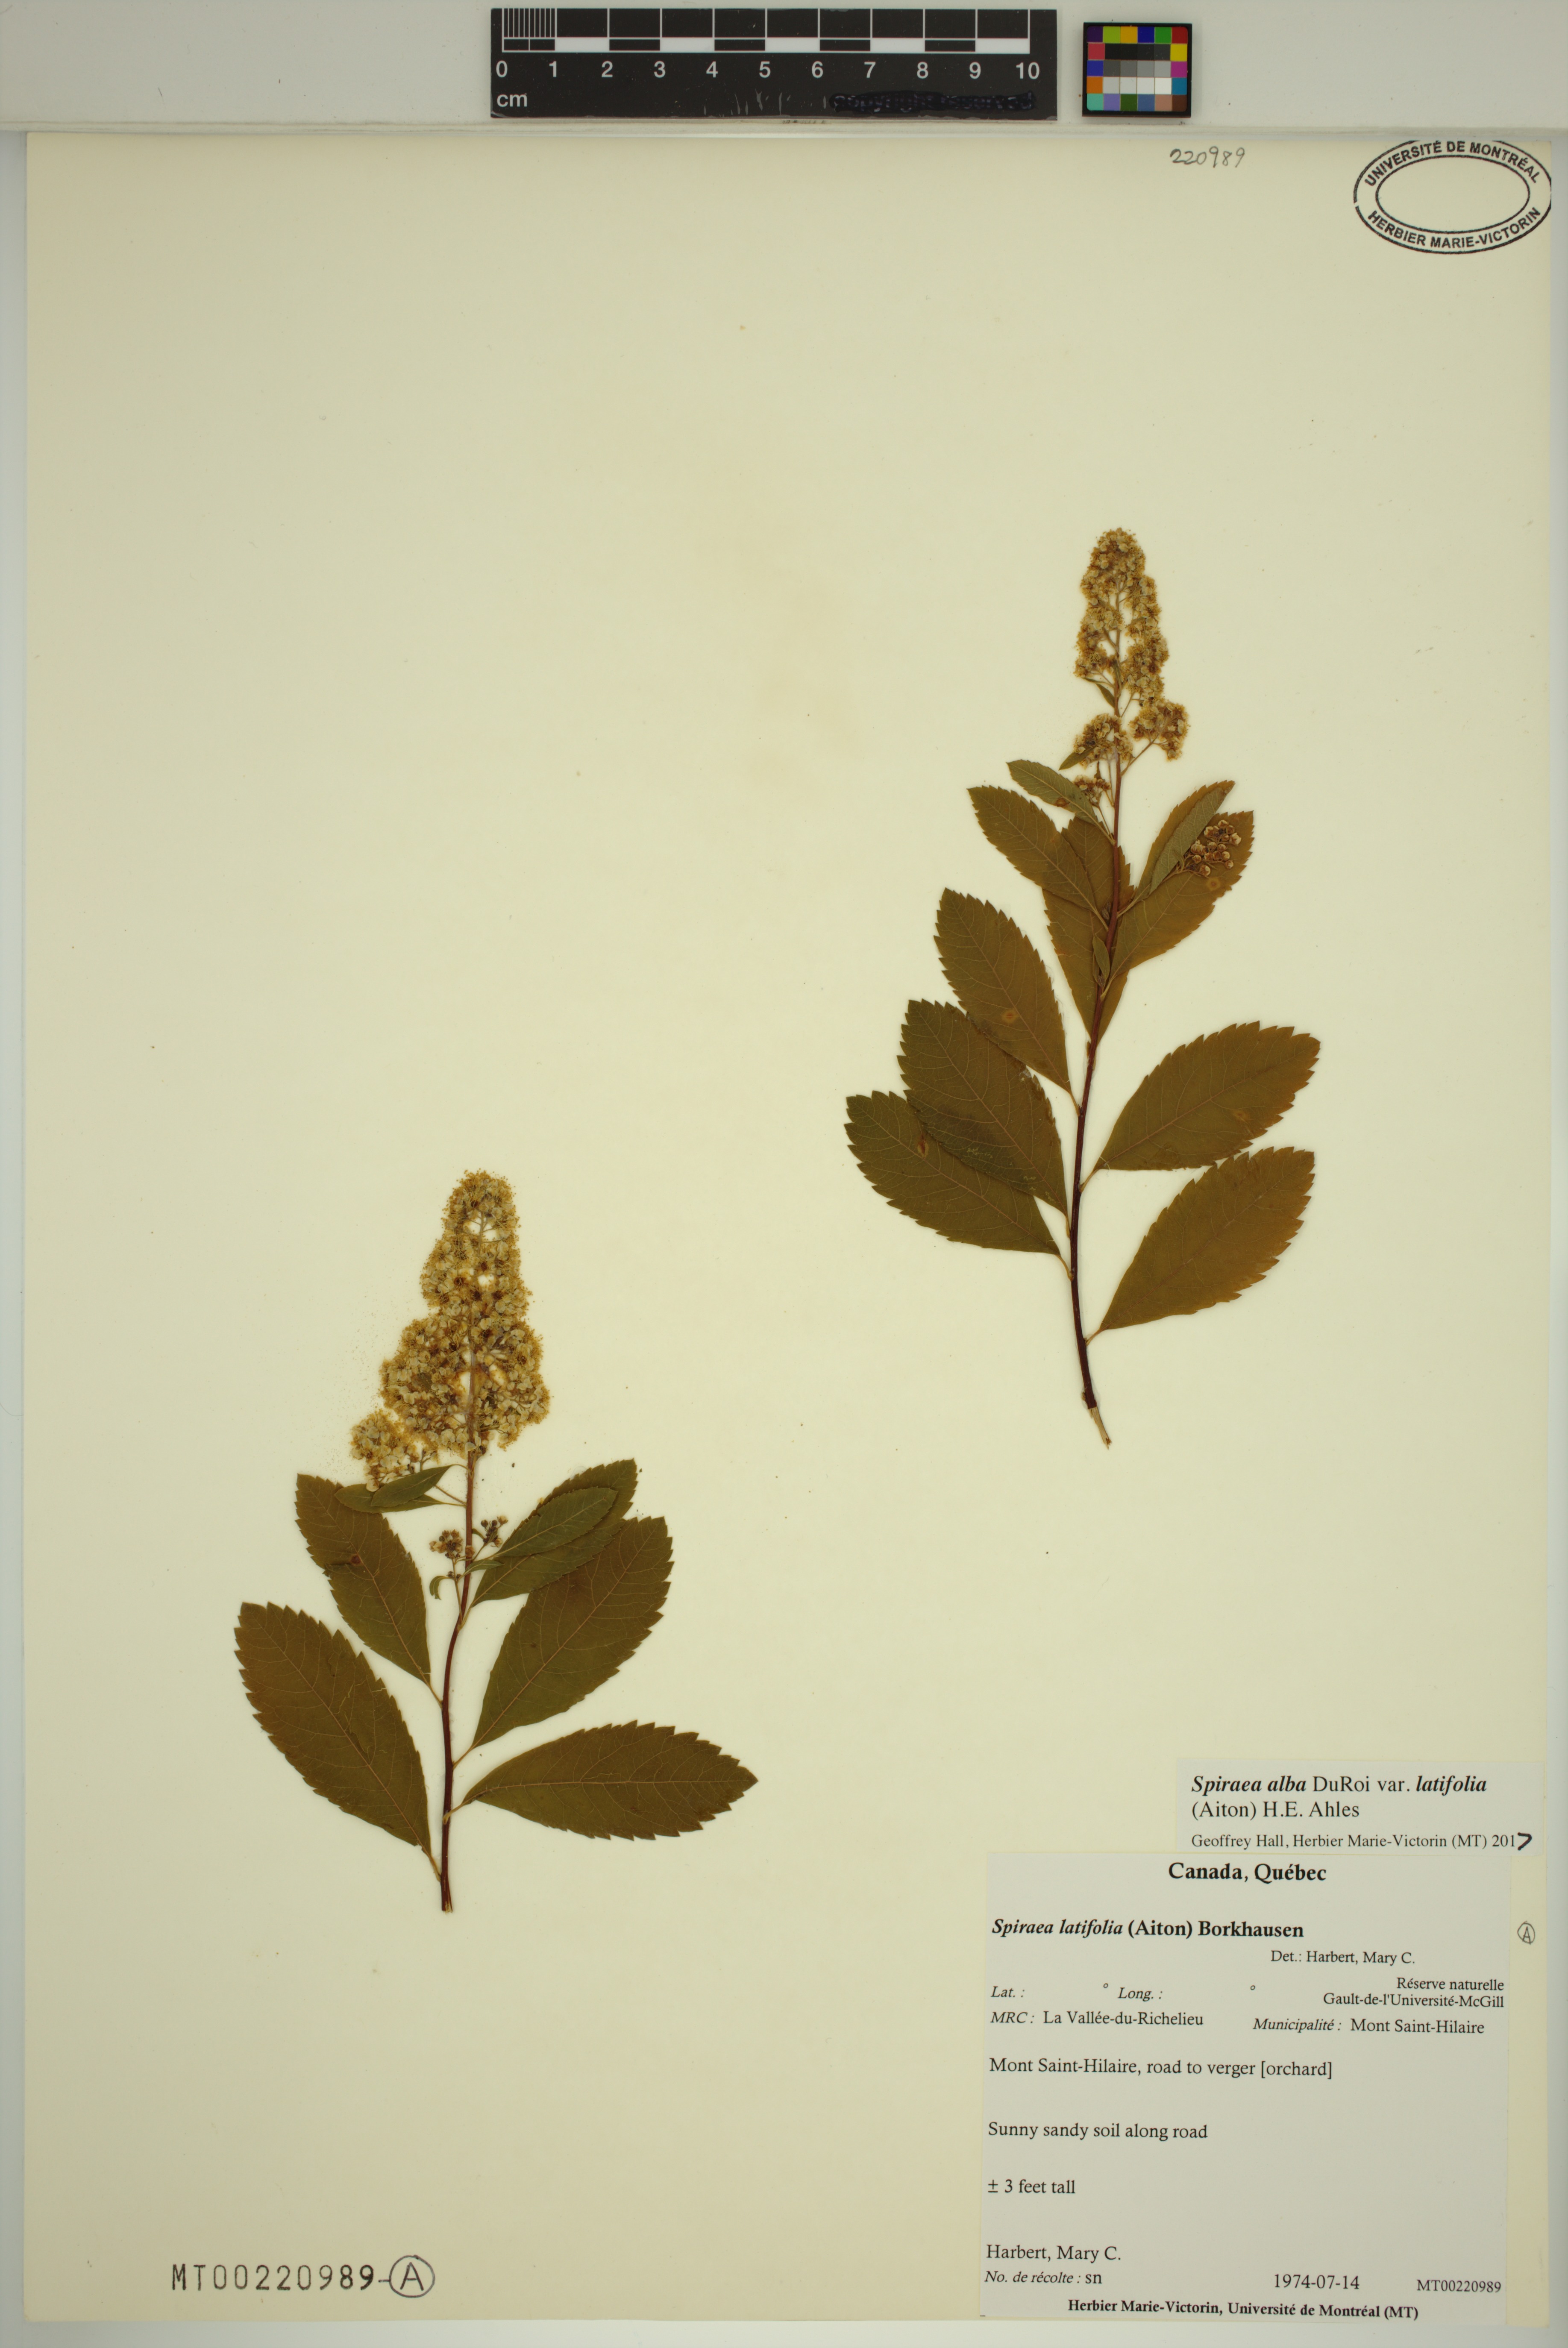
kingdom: Plantae
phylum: Tracheophyta
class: Magnoliopsida
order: Rosales
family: Rosaceae
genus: Spiraea
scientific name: Spiraea alba
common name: Pale bridewort
